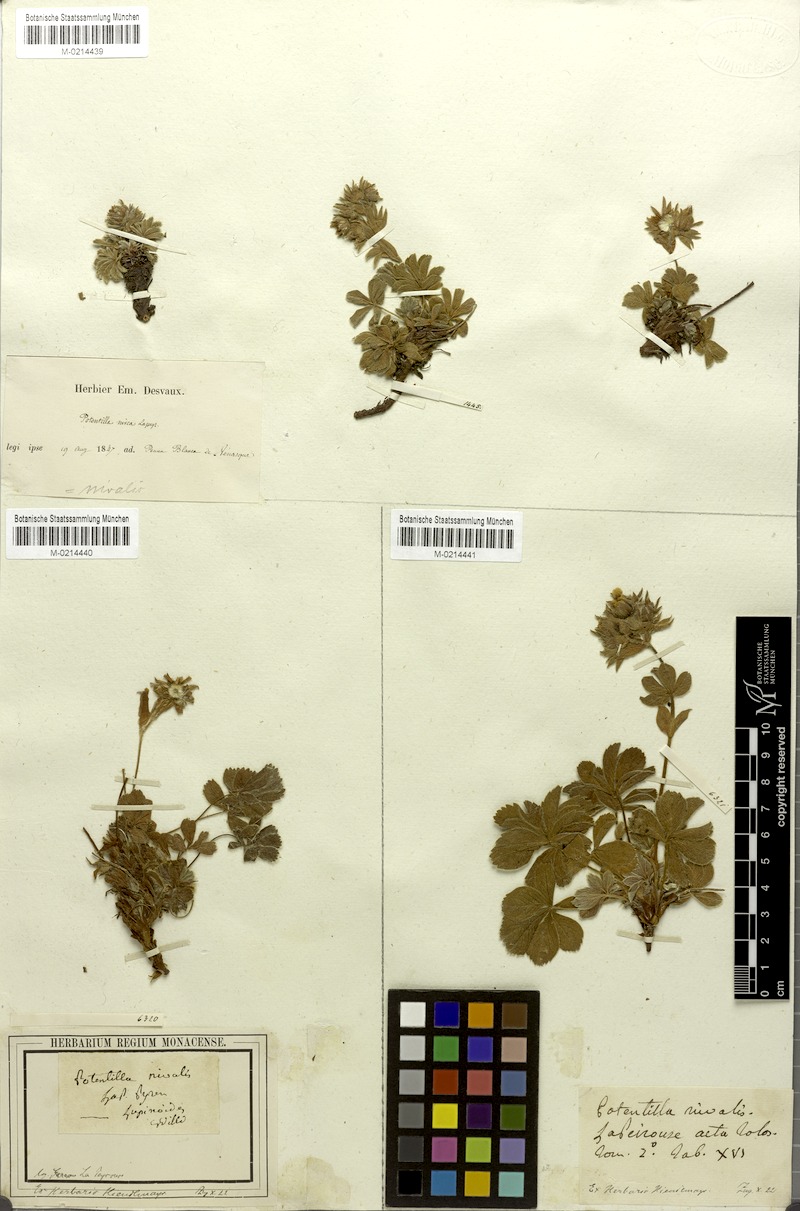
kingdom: Plantae
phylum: Tracheophyta
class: Magnoliopsida
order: Rosales
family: Rosaceae
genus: Potentilla
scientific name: Potentilla nivalis
